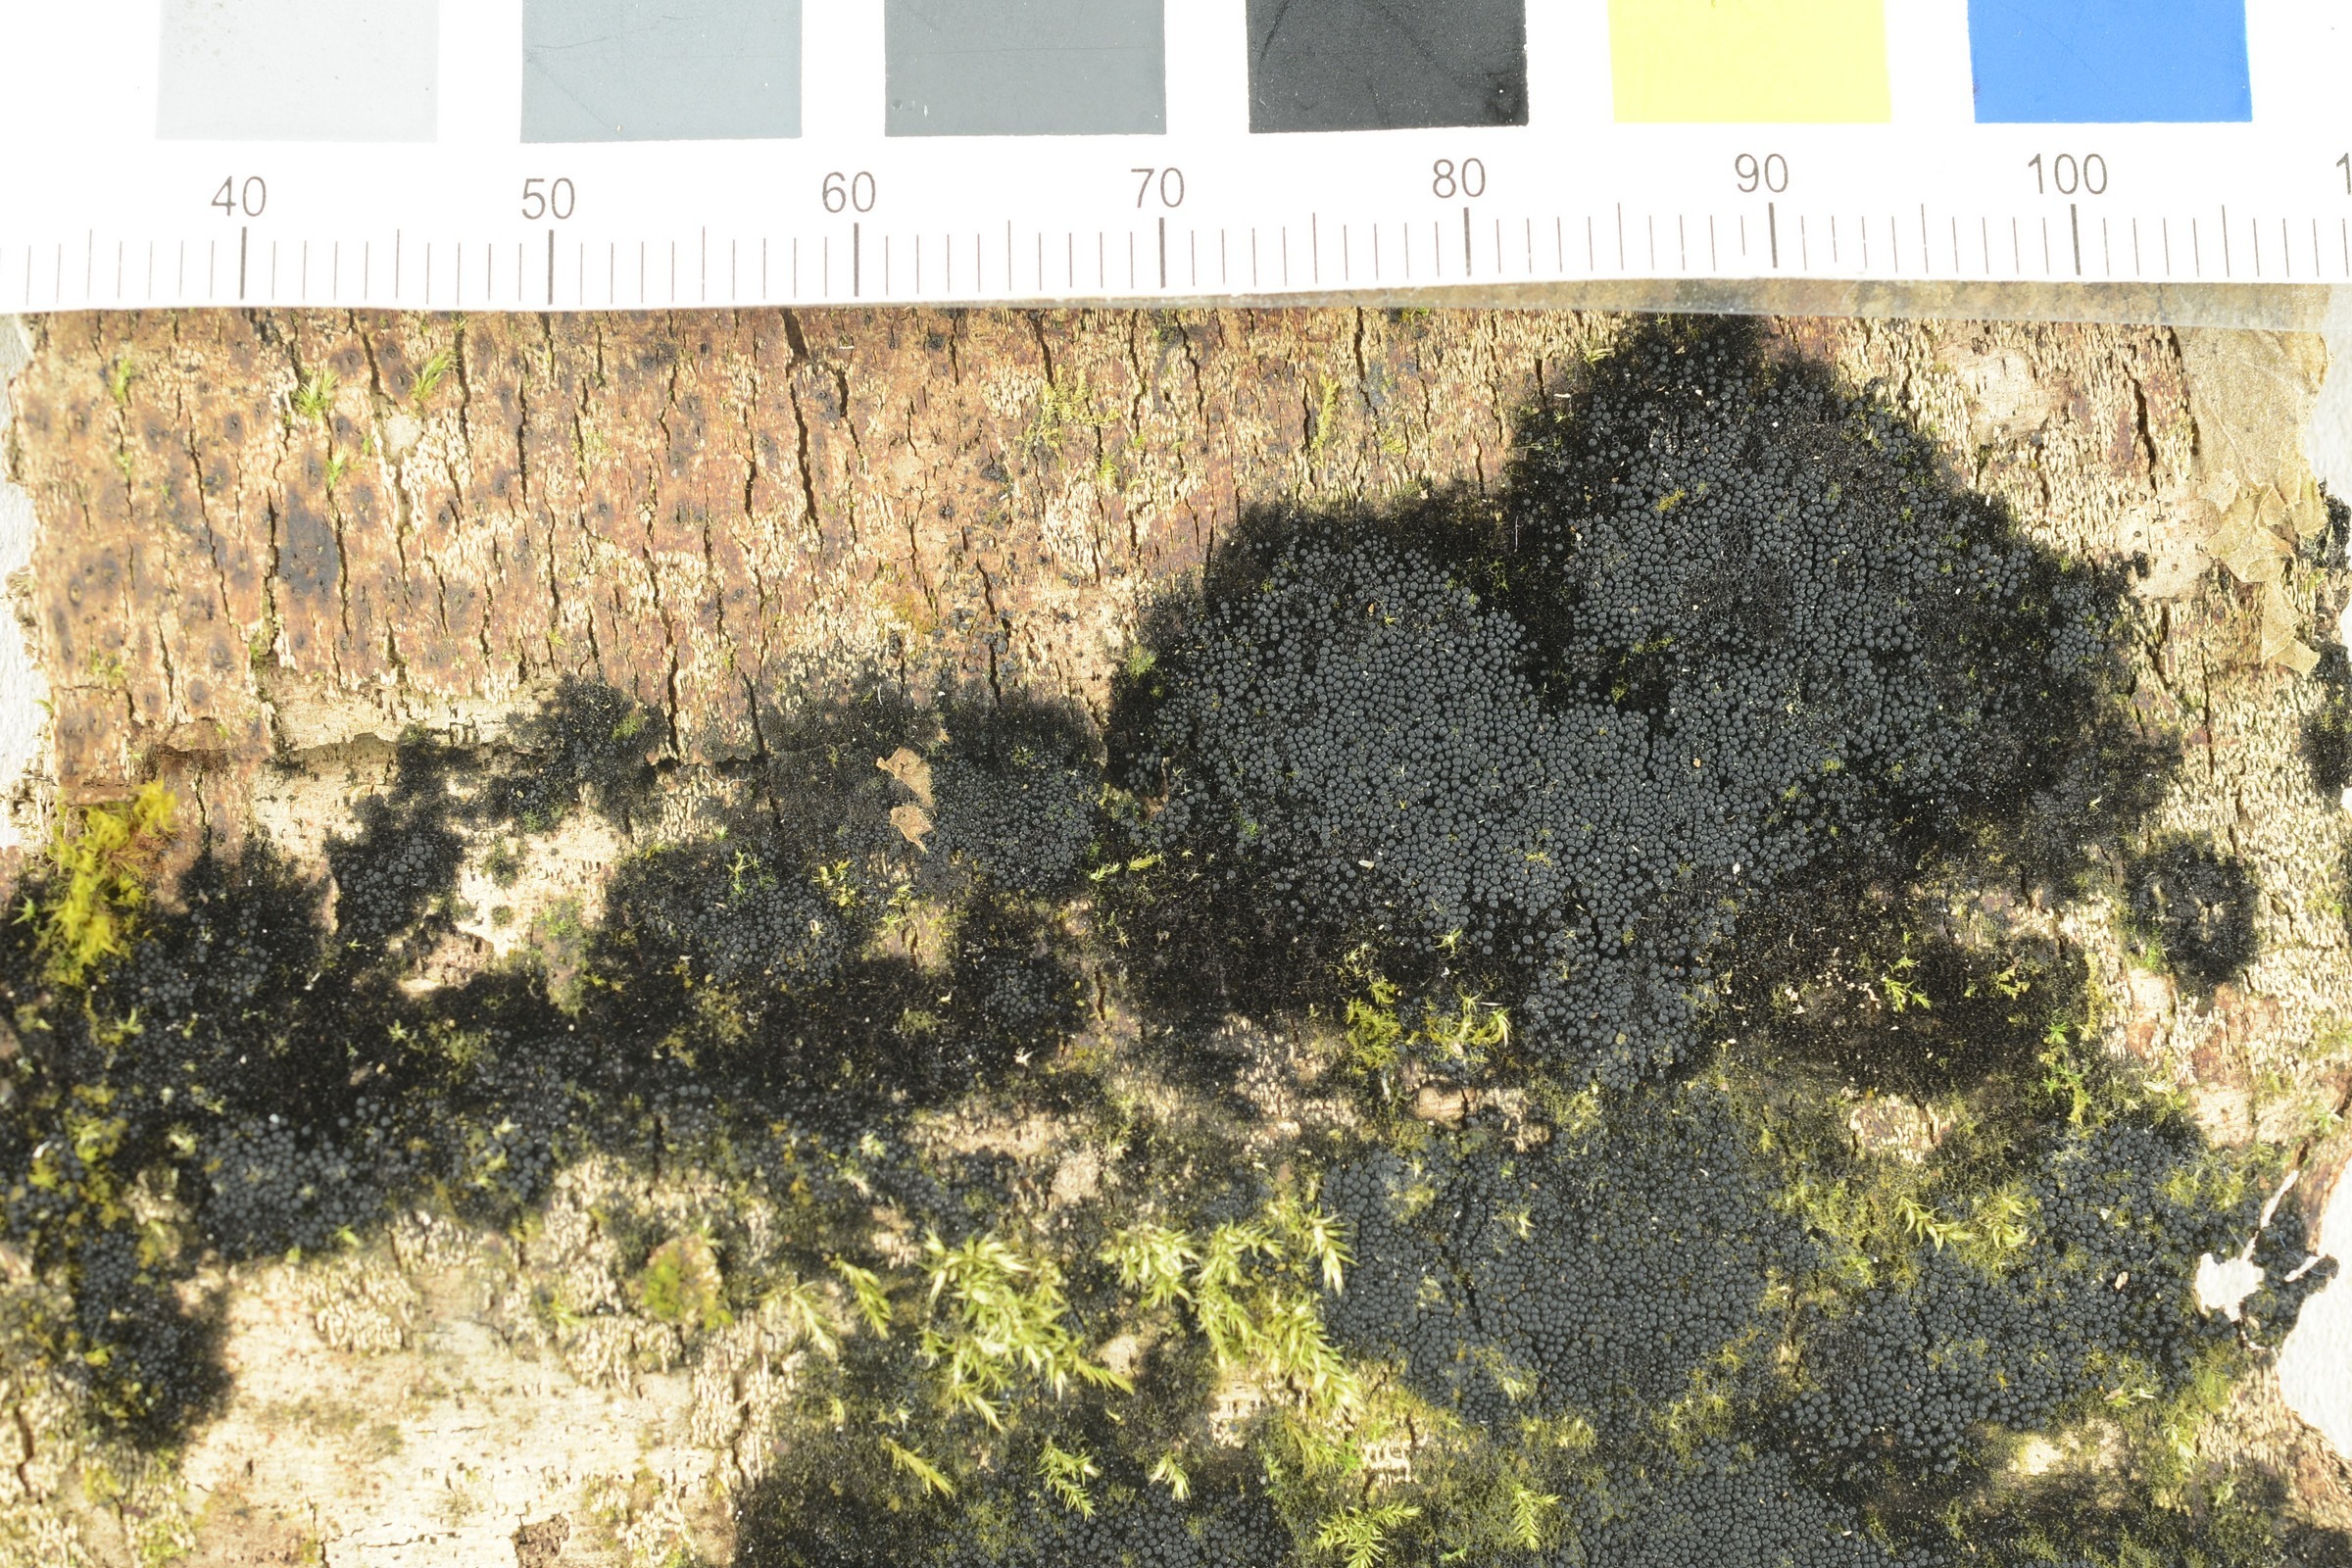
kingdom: Fungi
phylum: Ascomycota
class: Eurotiomycetes
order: Verrucariales
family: Verrucariaceae
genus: Moriola
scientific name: Moriola descensa
